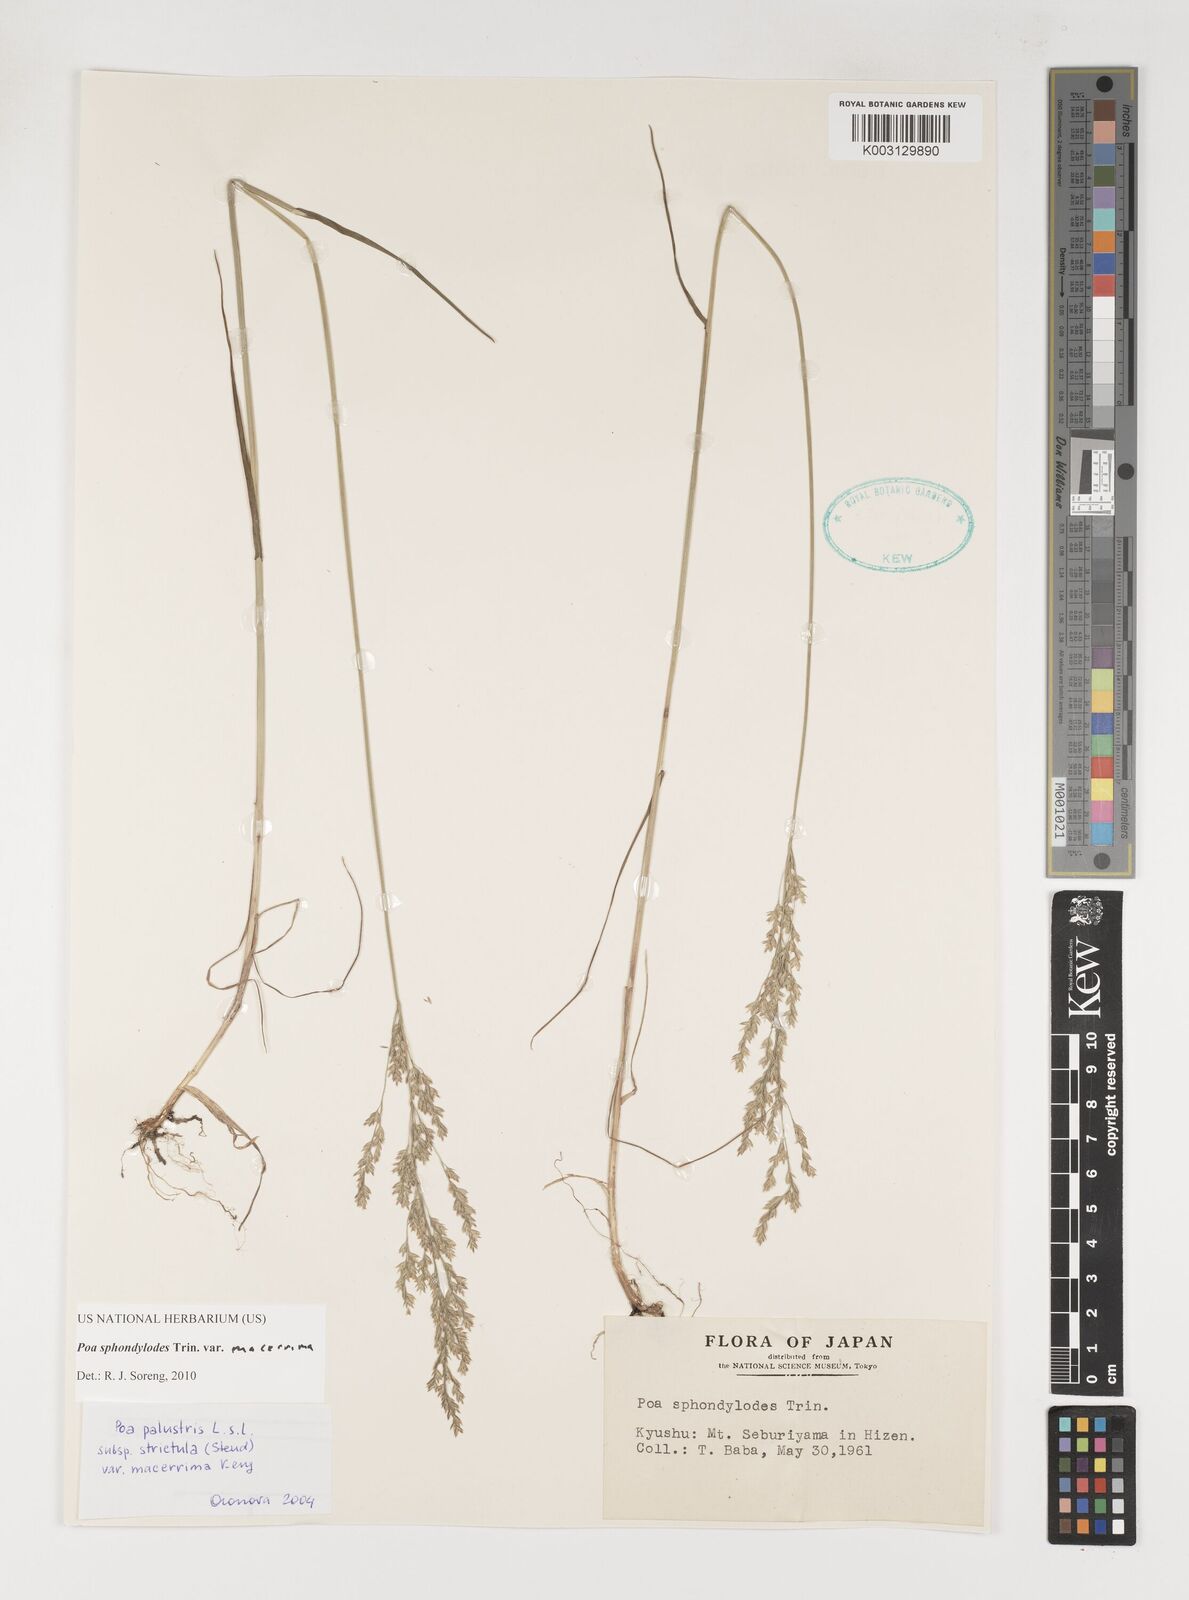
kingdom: Plantae
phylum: Tracheophyta
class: Liliopsida
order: Poales
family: Poaceae
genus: Poa
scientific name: Poa sphondylodes
